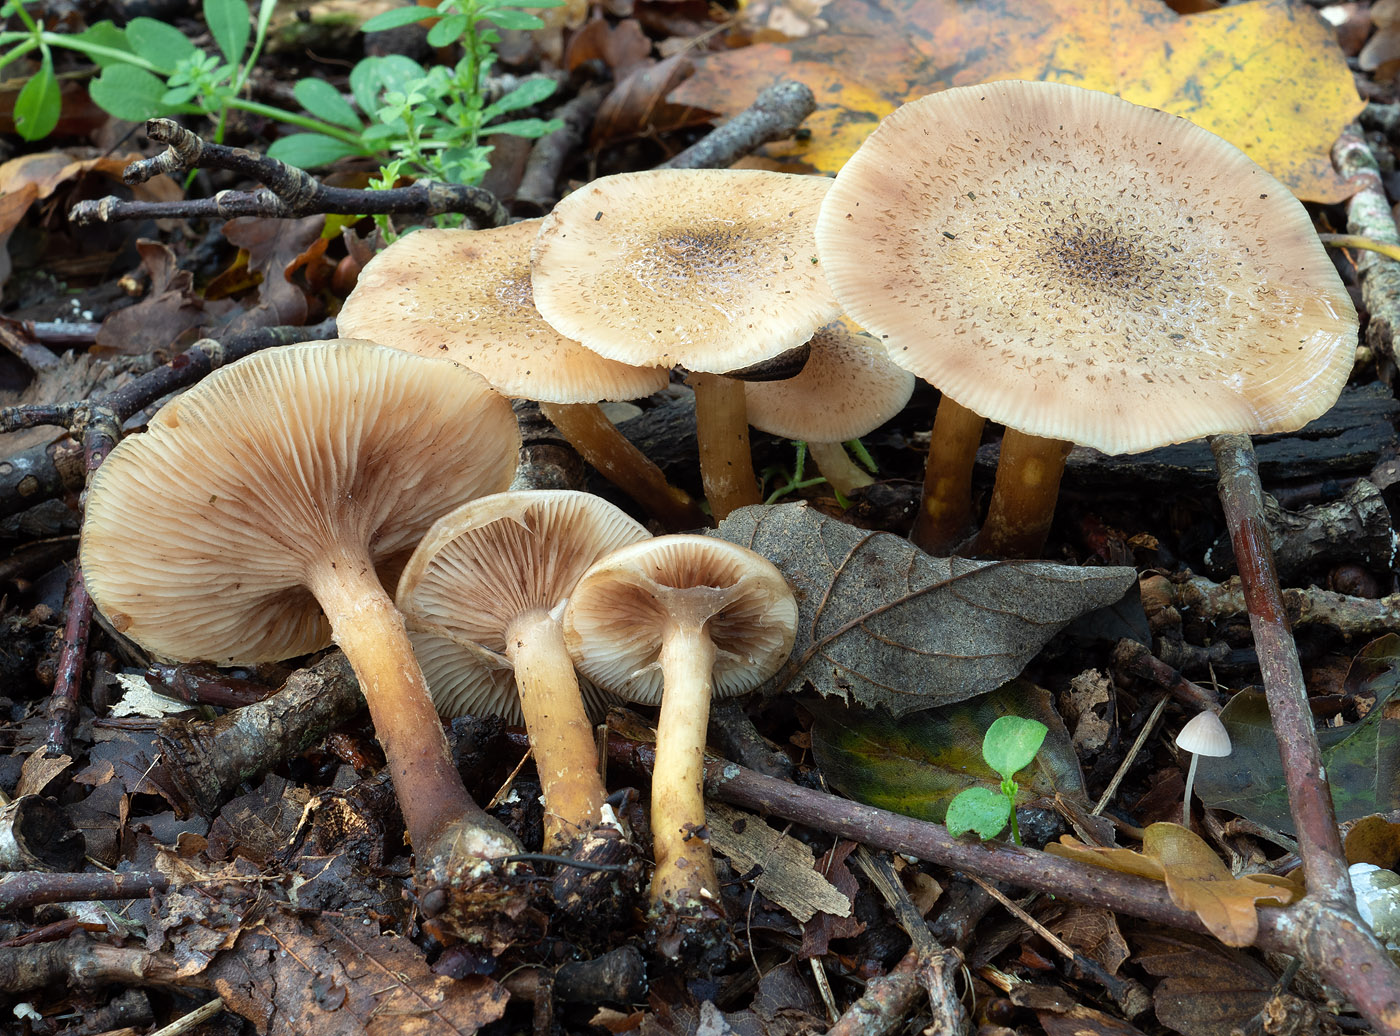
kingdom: Fungi
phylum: Basidiomycota
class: Agaricomycetes
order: Agaricales
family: Physalacriaceae
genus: Armillaria
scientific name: Armillaria cepistipes
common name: knoldfodet honningsvamp
